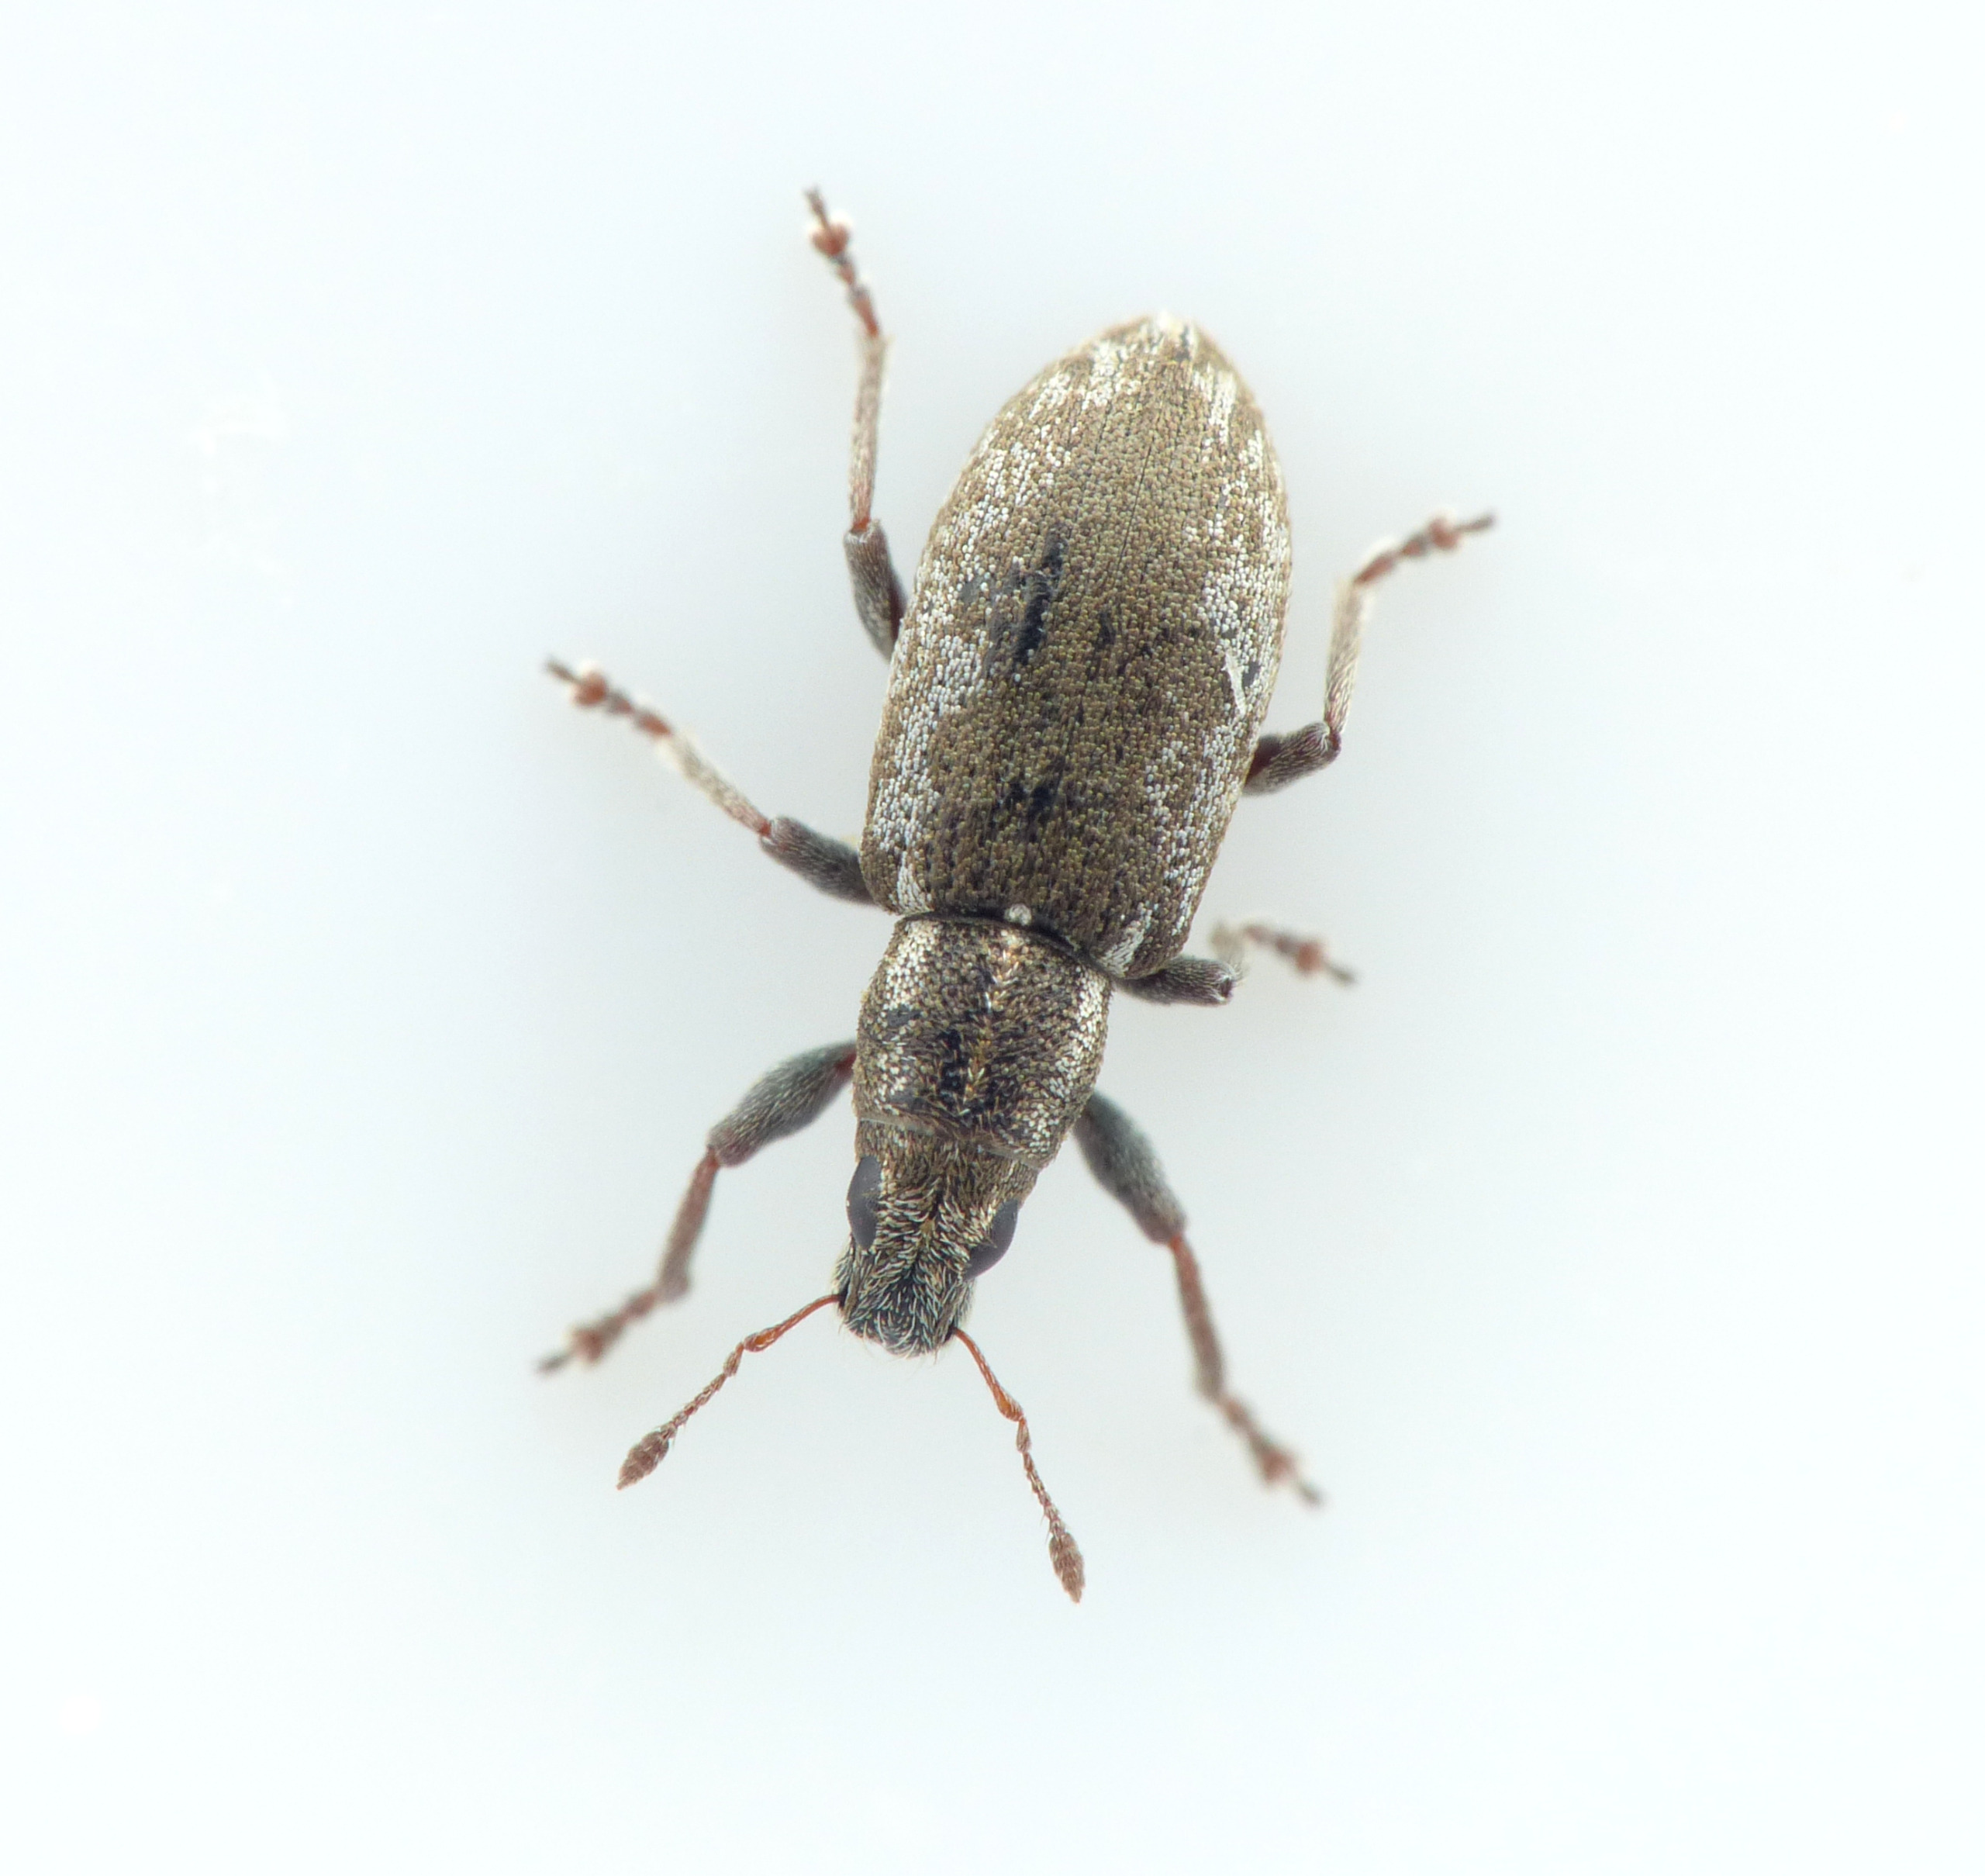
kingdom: Animalia
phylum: Arthropoda
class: Insecta
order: Coleoptera
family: Curculionidae
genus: Sitona
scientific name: Sitona humeralis
